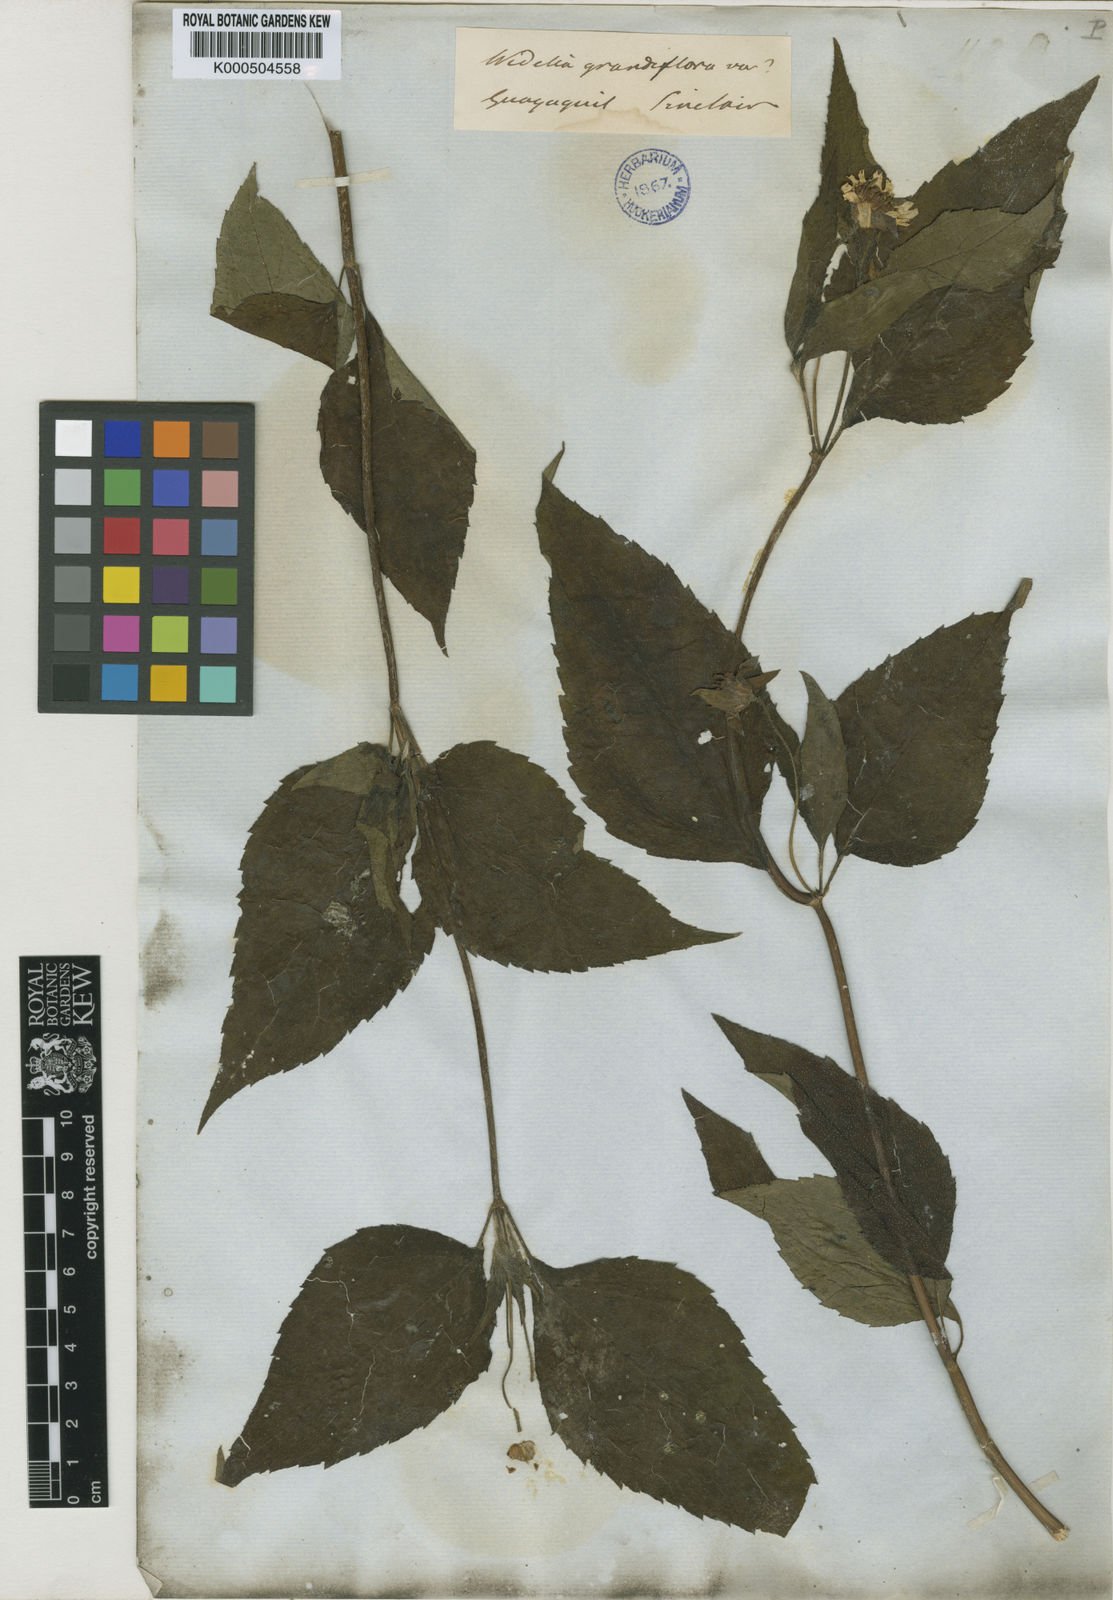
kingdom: Plantae
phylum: Tracheophyta
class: Magnoliopsida
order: Asterales
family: Asteraceae
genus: Wedelia
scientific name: Wedelia grandiflora
